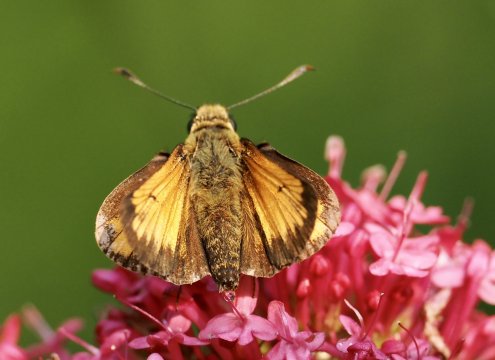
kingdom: Animalia
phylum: Arthropoda
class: Insecta
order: Lepidoptera
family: Hesperiidae
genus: Lon
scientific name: Lon hobomok
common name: Hobomok Skipper
